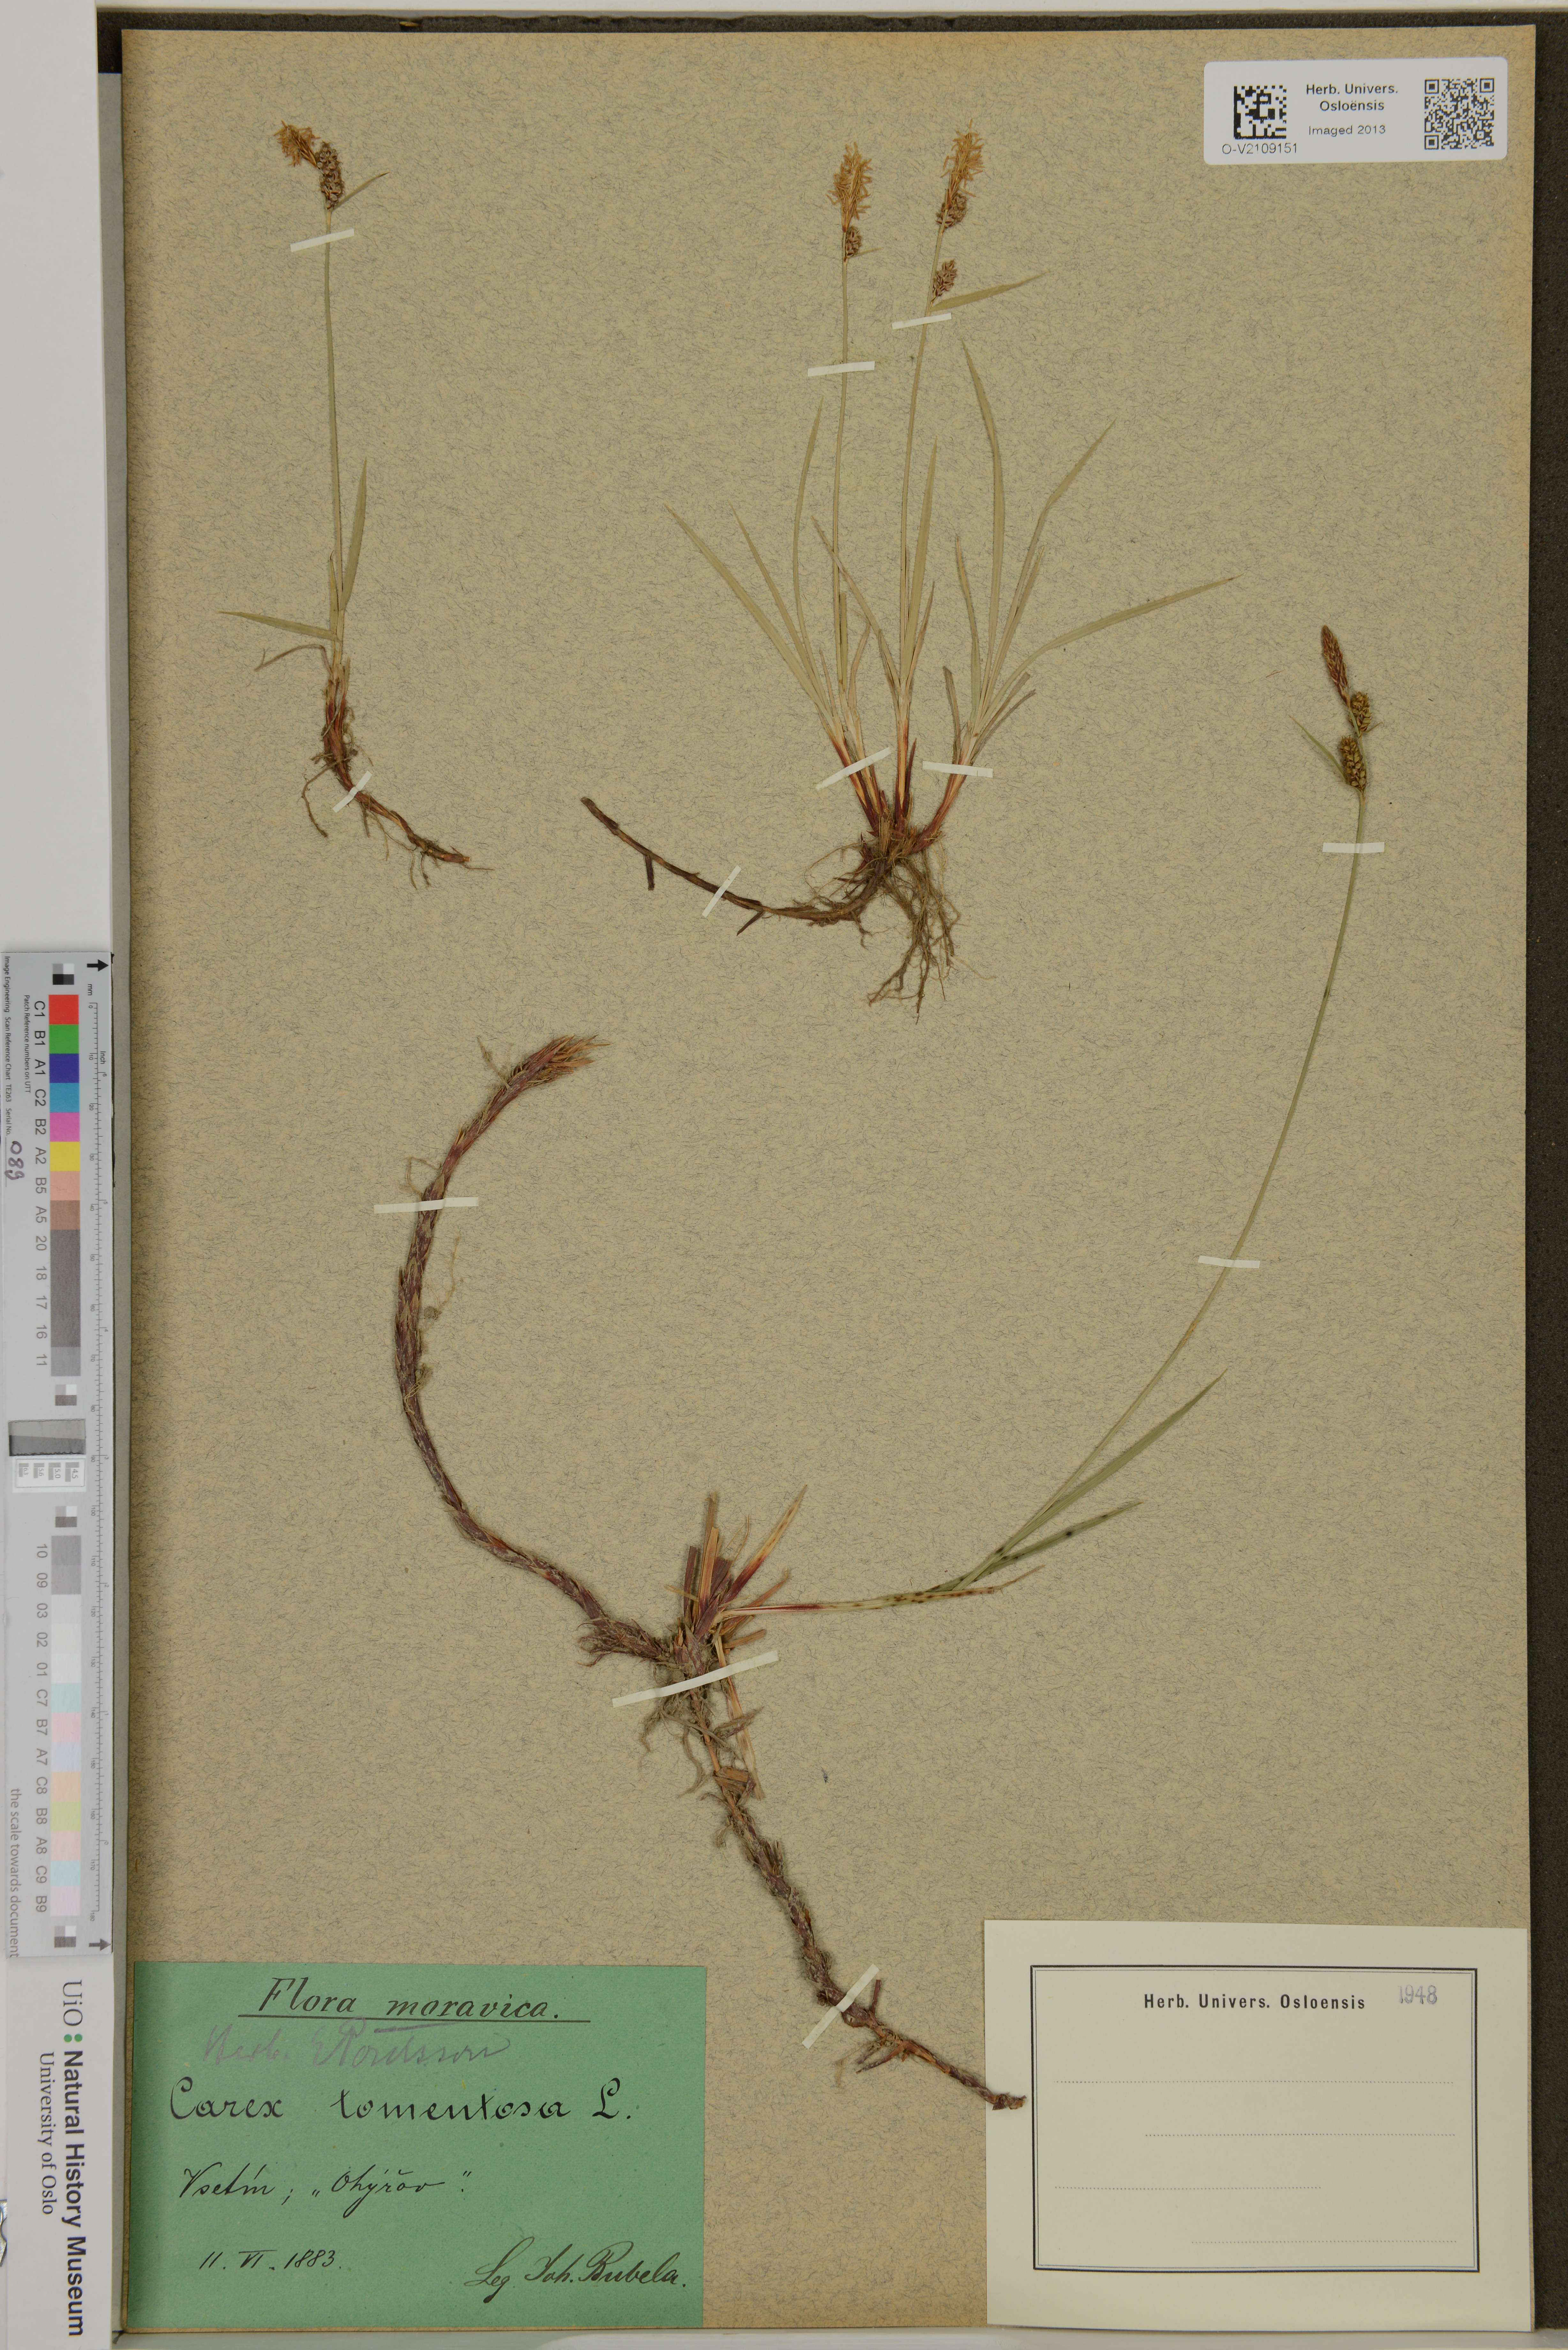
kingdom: Plantae
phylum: Tracheophyta
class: Liliopsida
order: Poales
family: Cyperaceae
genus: Carex
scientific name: Carex montana
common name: Soft-leaved sedge
